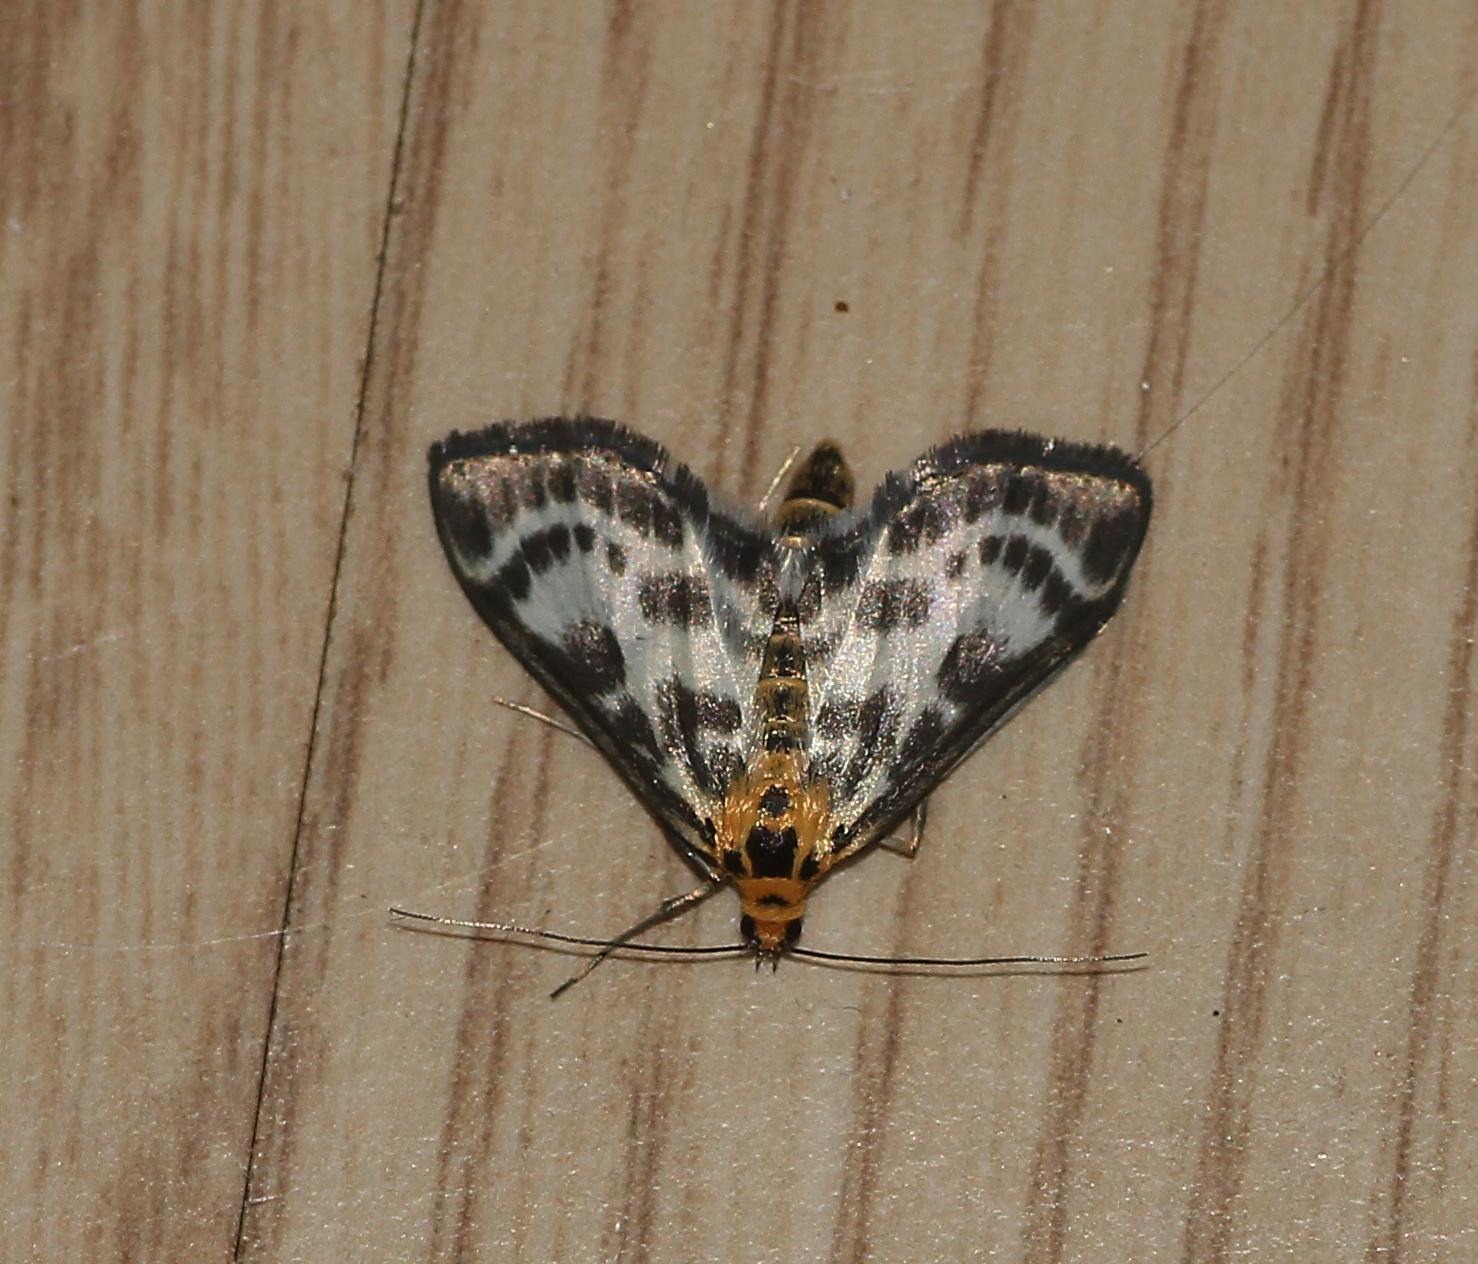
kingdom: Animalia
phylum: Arthropoda
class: Insecta
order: Lepidoptera
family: Crambidae
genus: Anania
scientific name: Anania hortulata
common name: Nældehalvmøl
